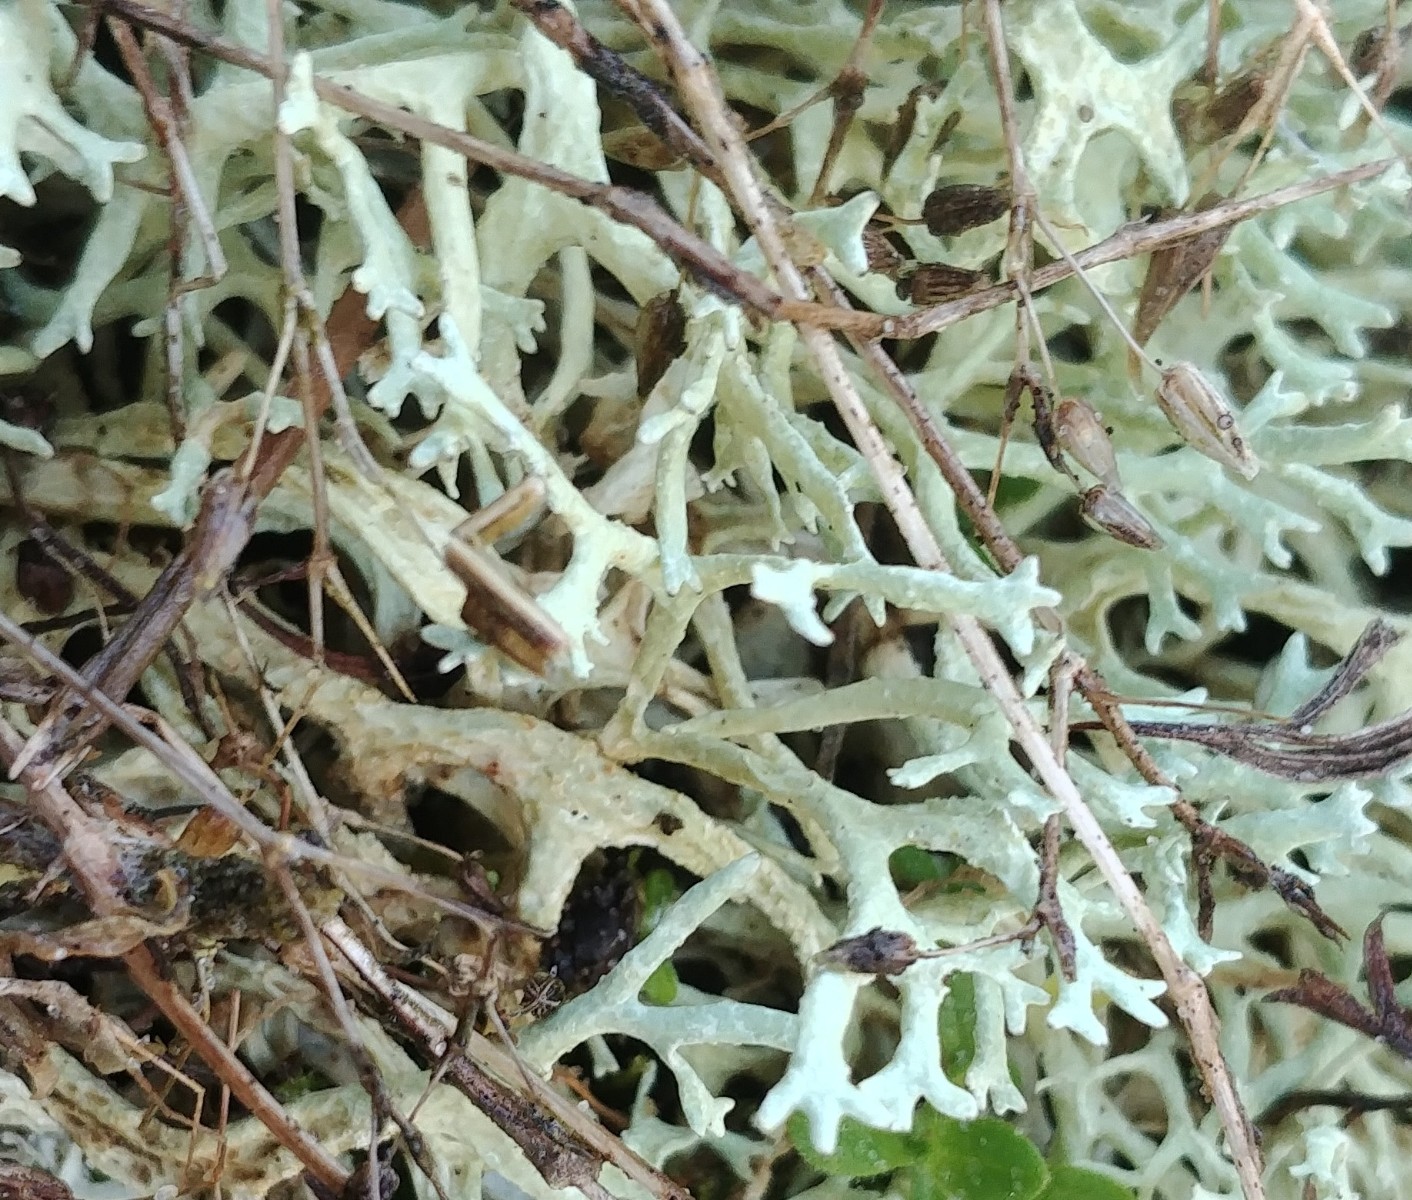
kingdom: Fungi
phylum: Ascomycota
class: Lecanoromycetes
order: Lecanorales
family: Parmeliaceae
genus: Evernia
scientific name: Evernia prunastri
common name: almindelig slåenlav
